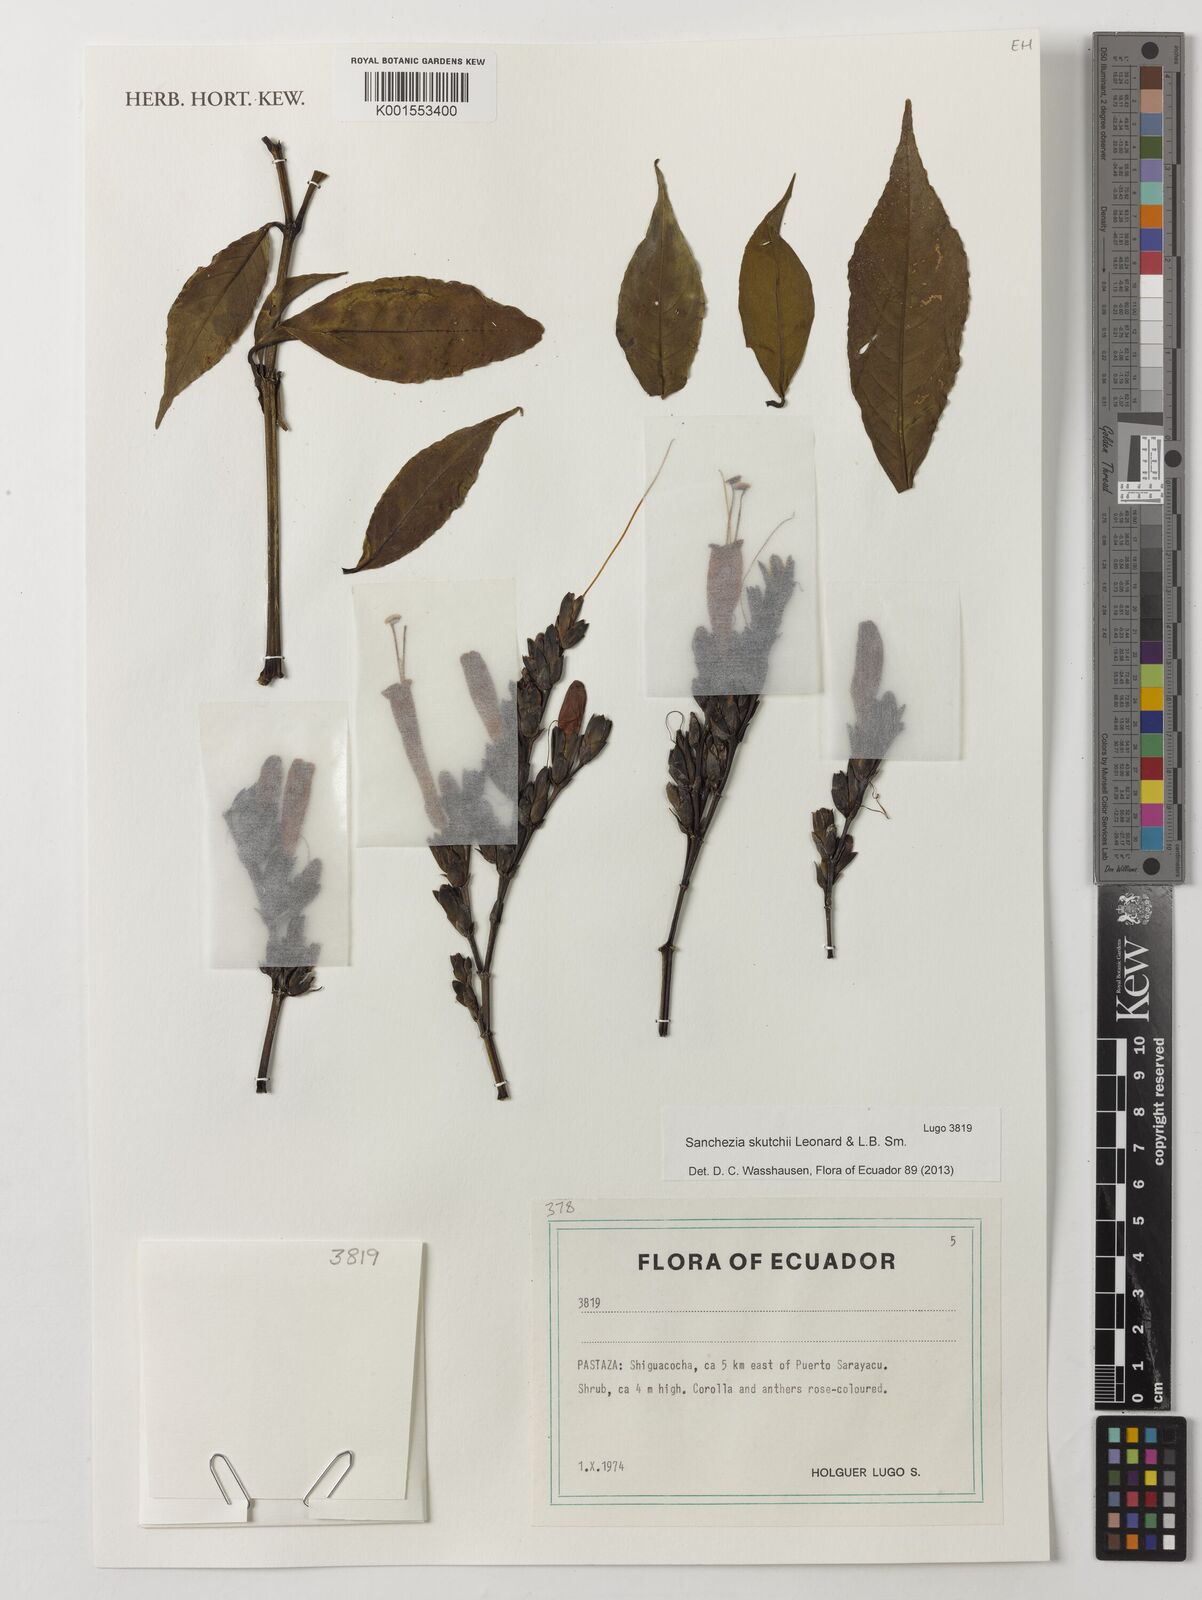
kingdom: Plantae
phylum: Tracheophyta
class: Magnoliopsida
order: Lamiales
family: Acanthaceae
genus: Sanchezia
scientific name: Sanchezia putumayensis
